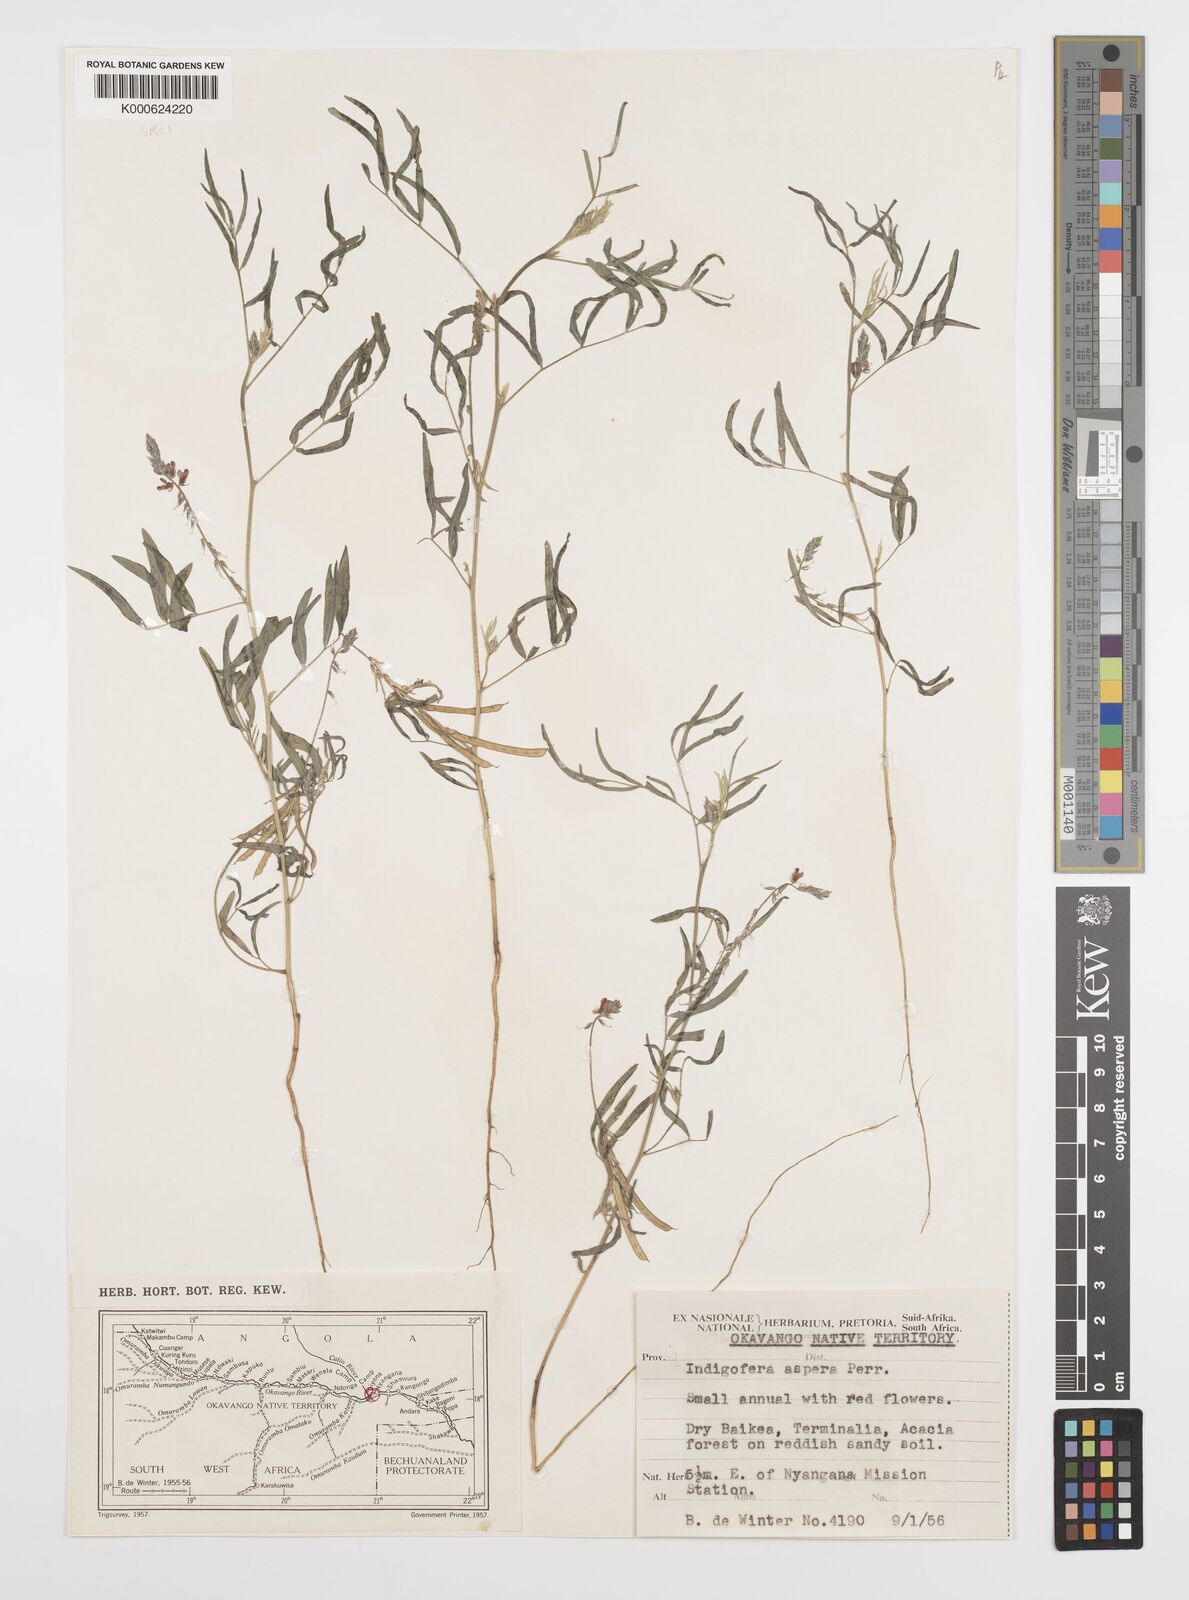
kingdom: Plantae
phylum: Tracheophyta
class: Magnoliopsida
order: Fabales
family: Fabaceae
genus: Indigofera
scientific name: Indigofera charlieriana
